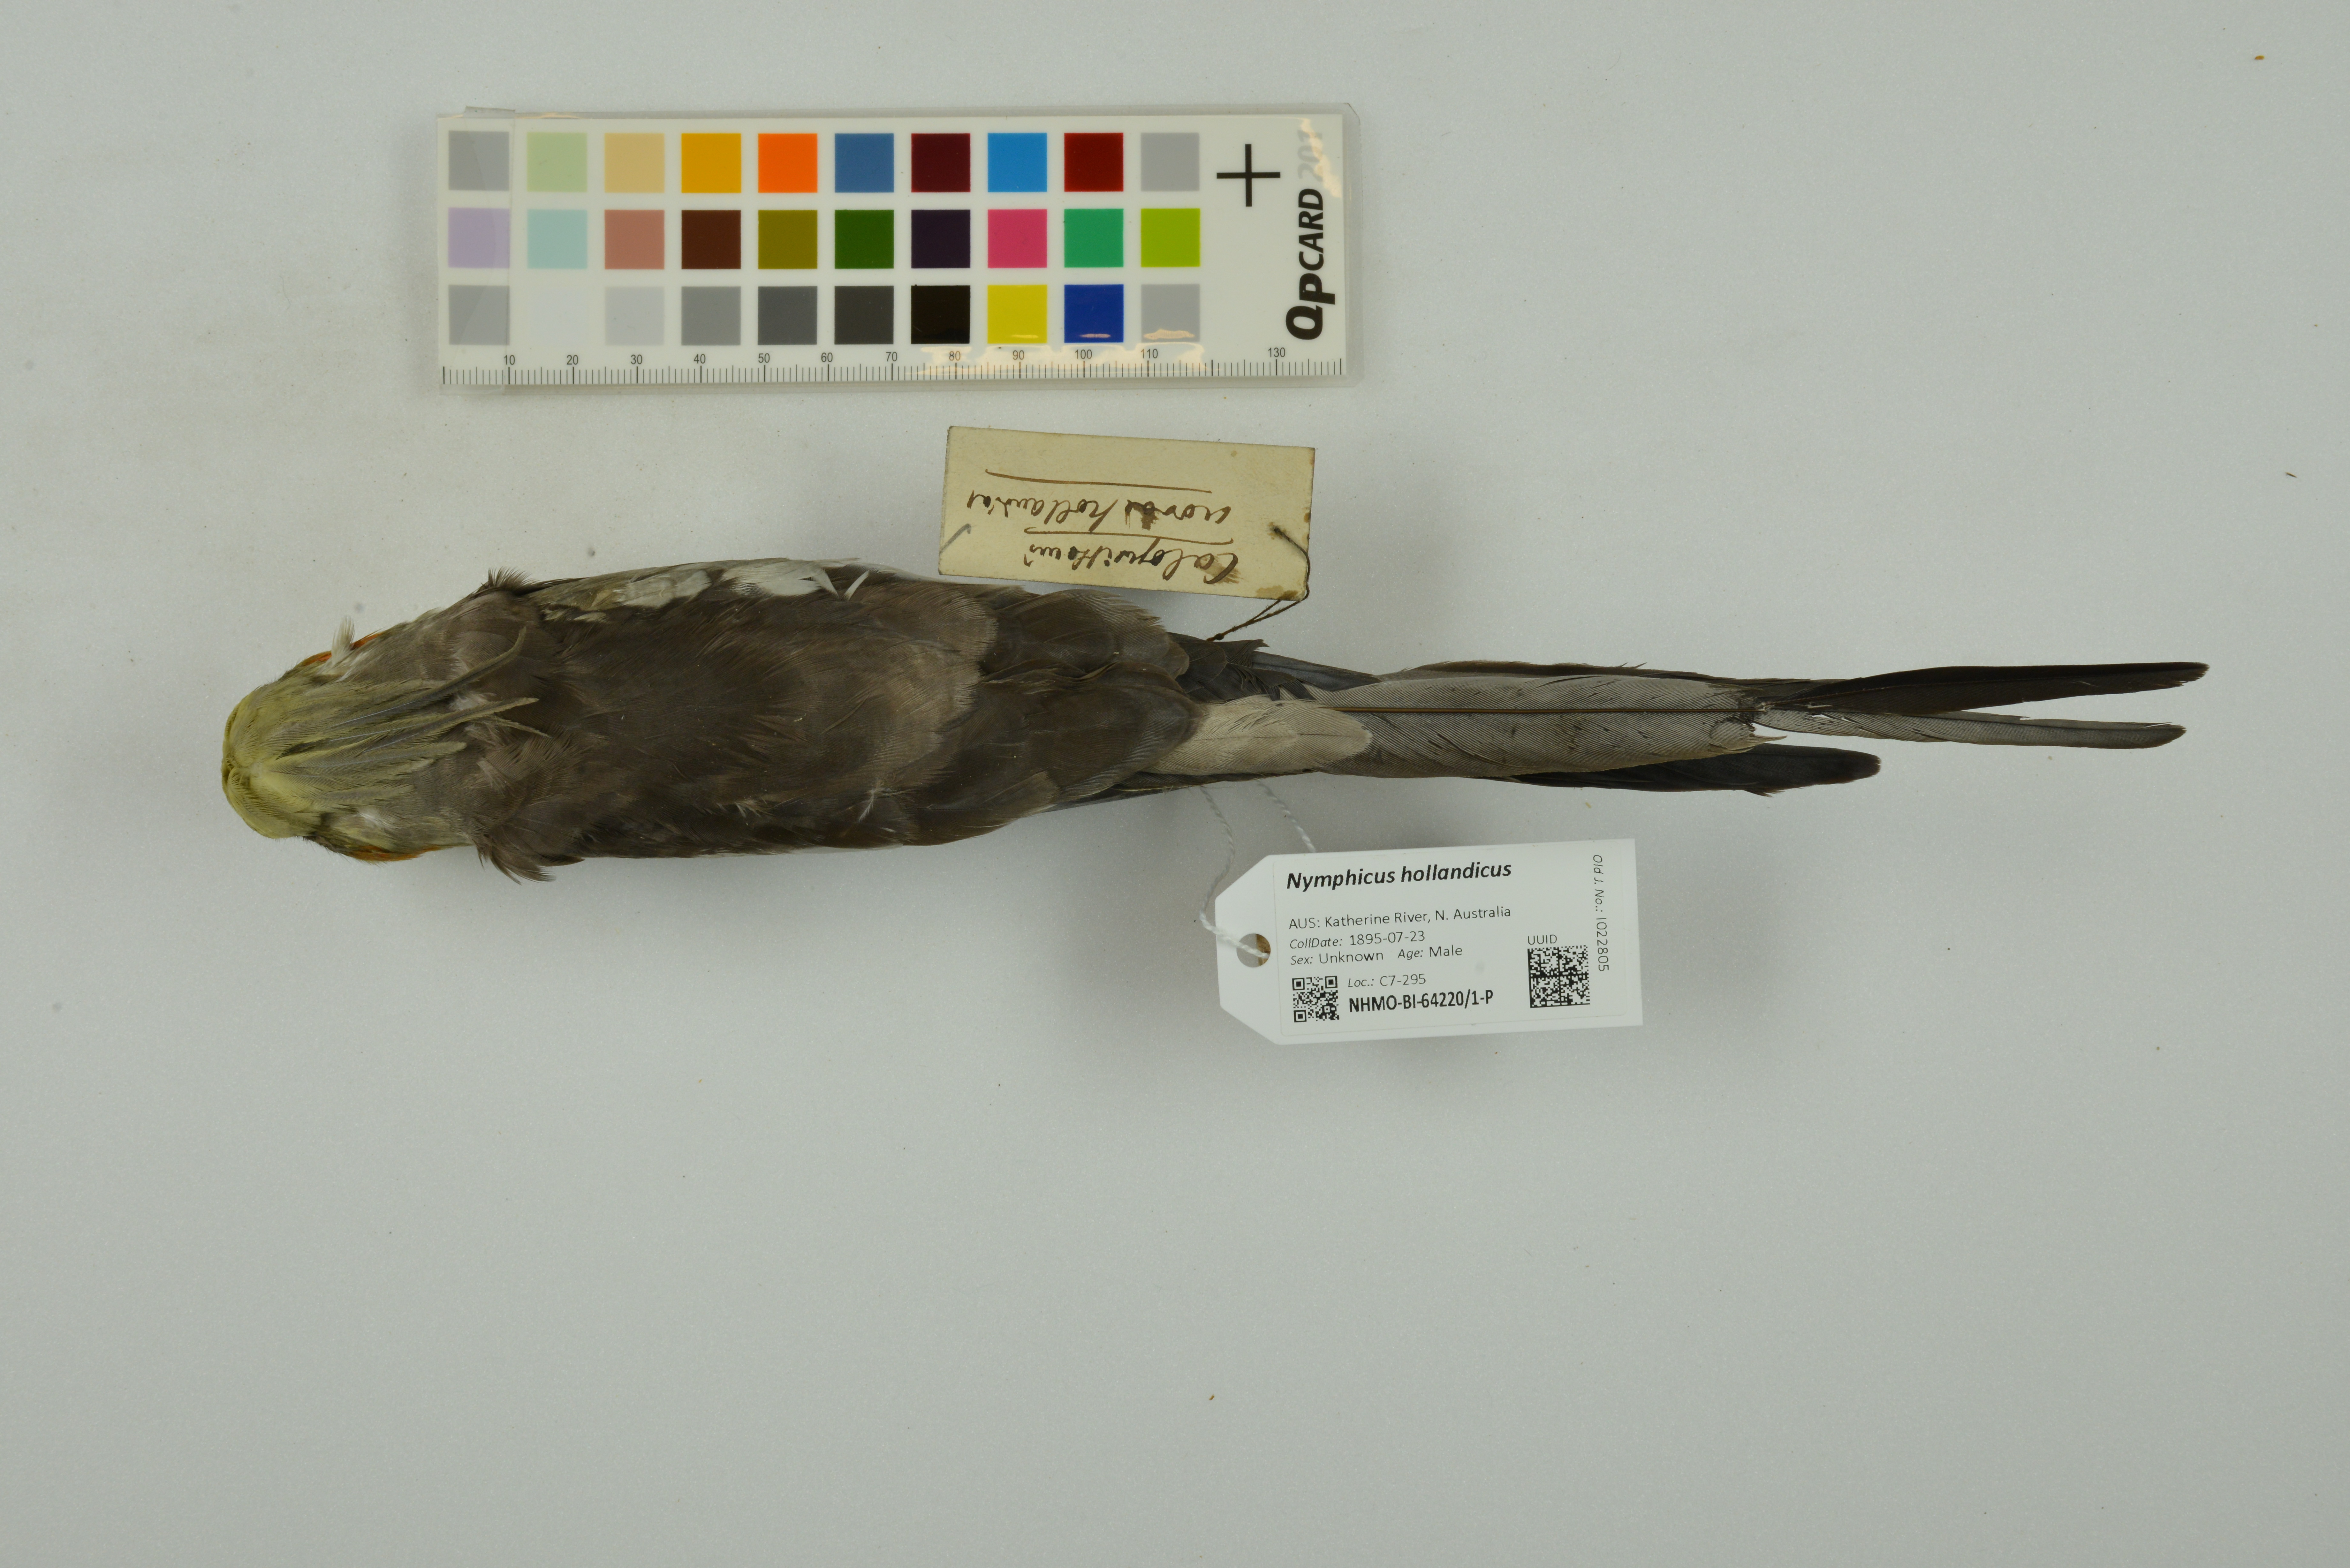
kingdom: Animalia
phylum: Chordata
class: Aves
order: Psittaciformes
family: Psittacidae
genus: Nymphicus
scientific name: Nymphicus hollandicus
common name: Cockatiel
